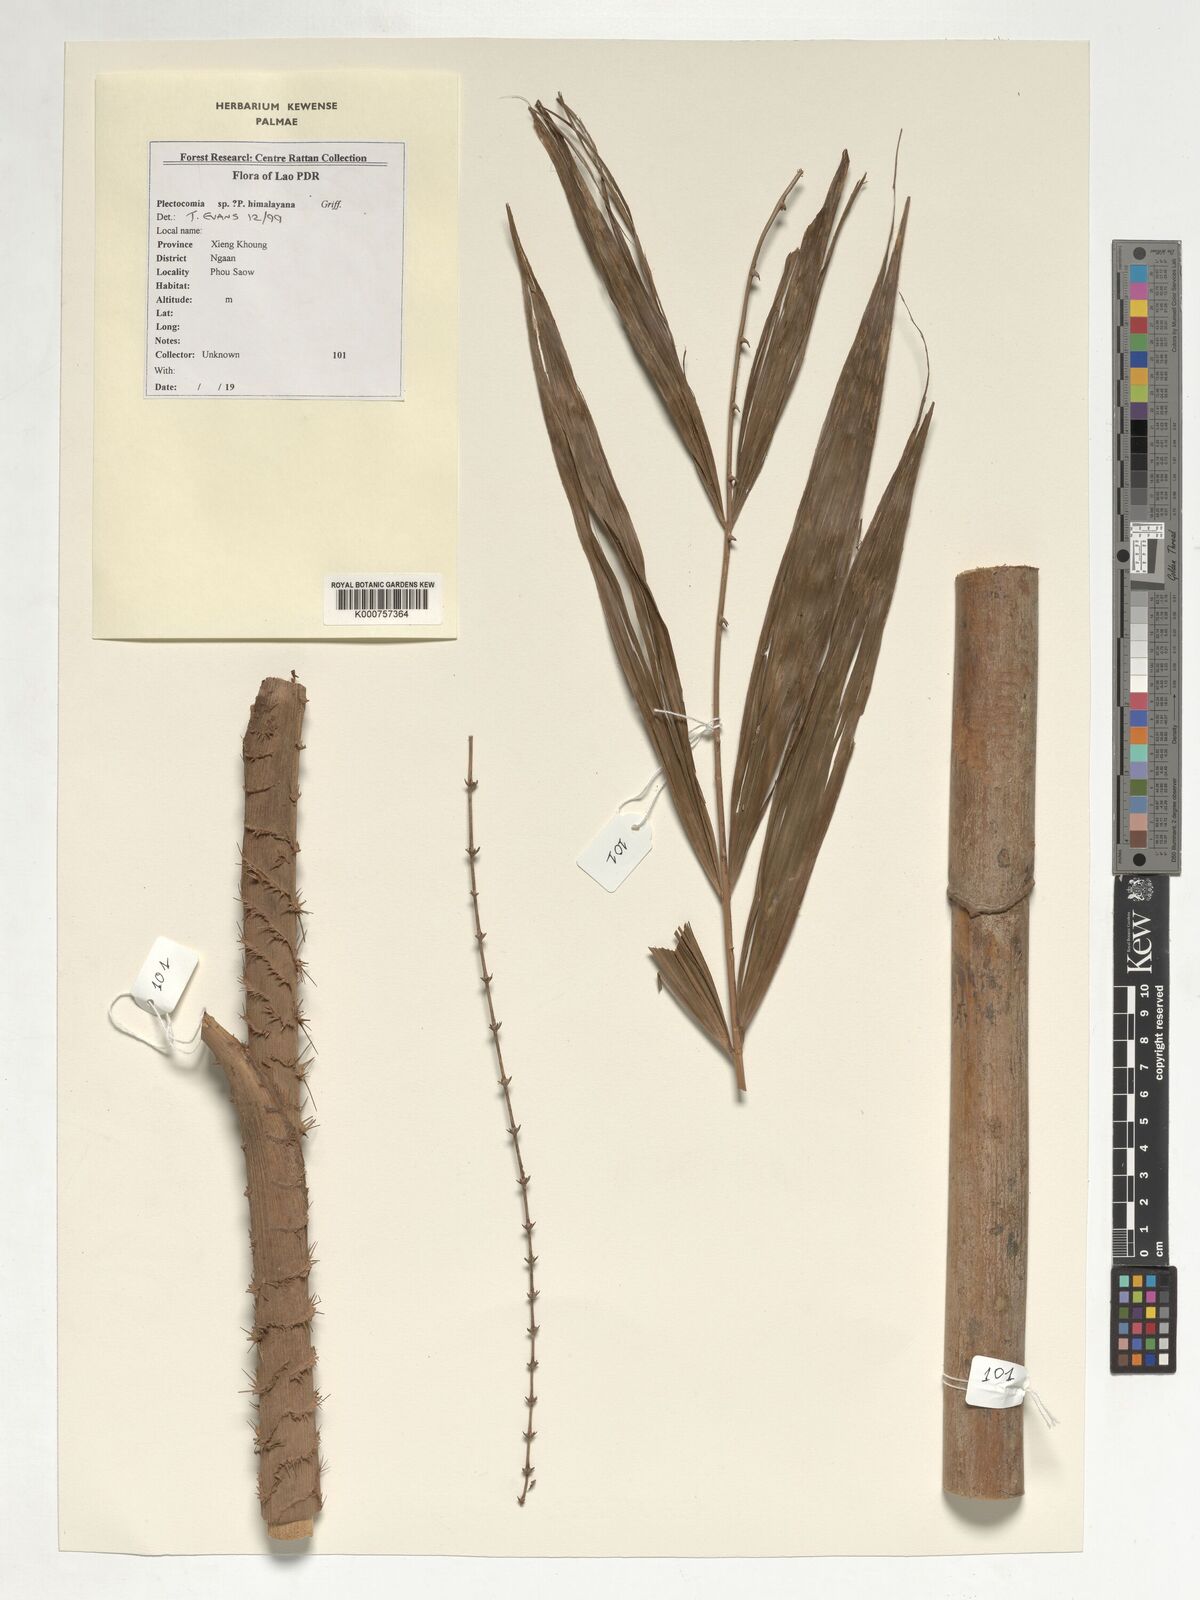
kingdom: Plantae
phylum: Tracheophyta
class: Liliopsida
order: Arecales
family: Arecaceae
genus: Plectocomia
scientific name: Plectocomia himalayana
